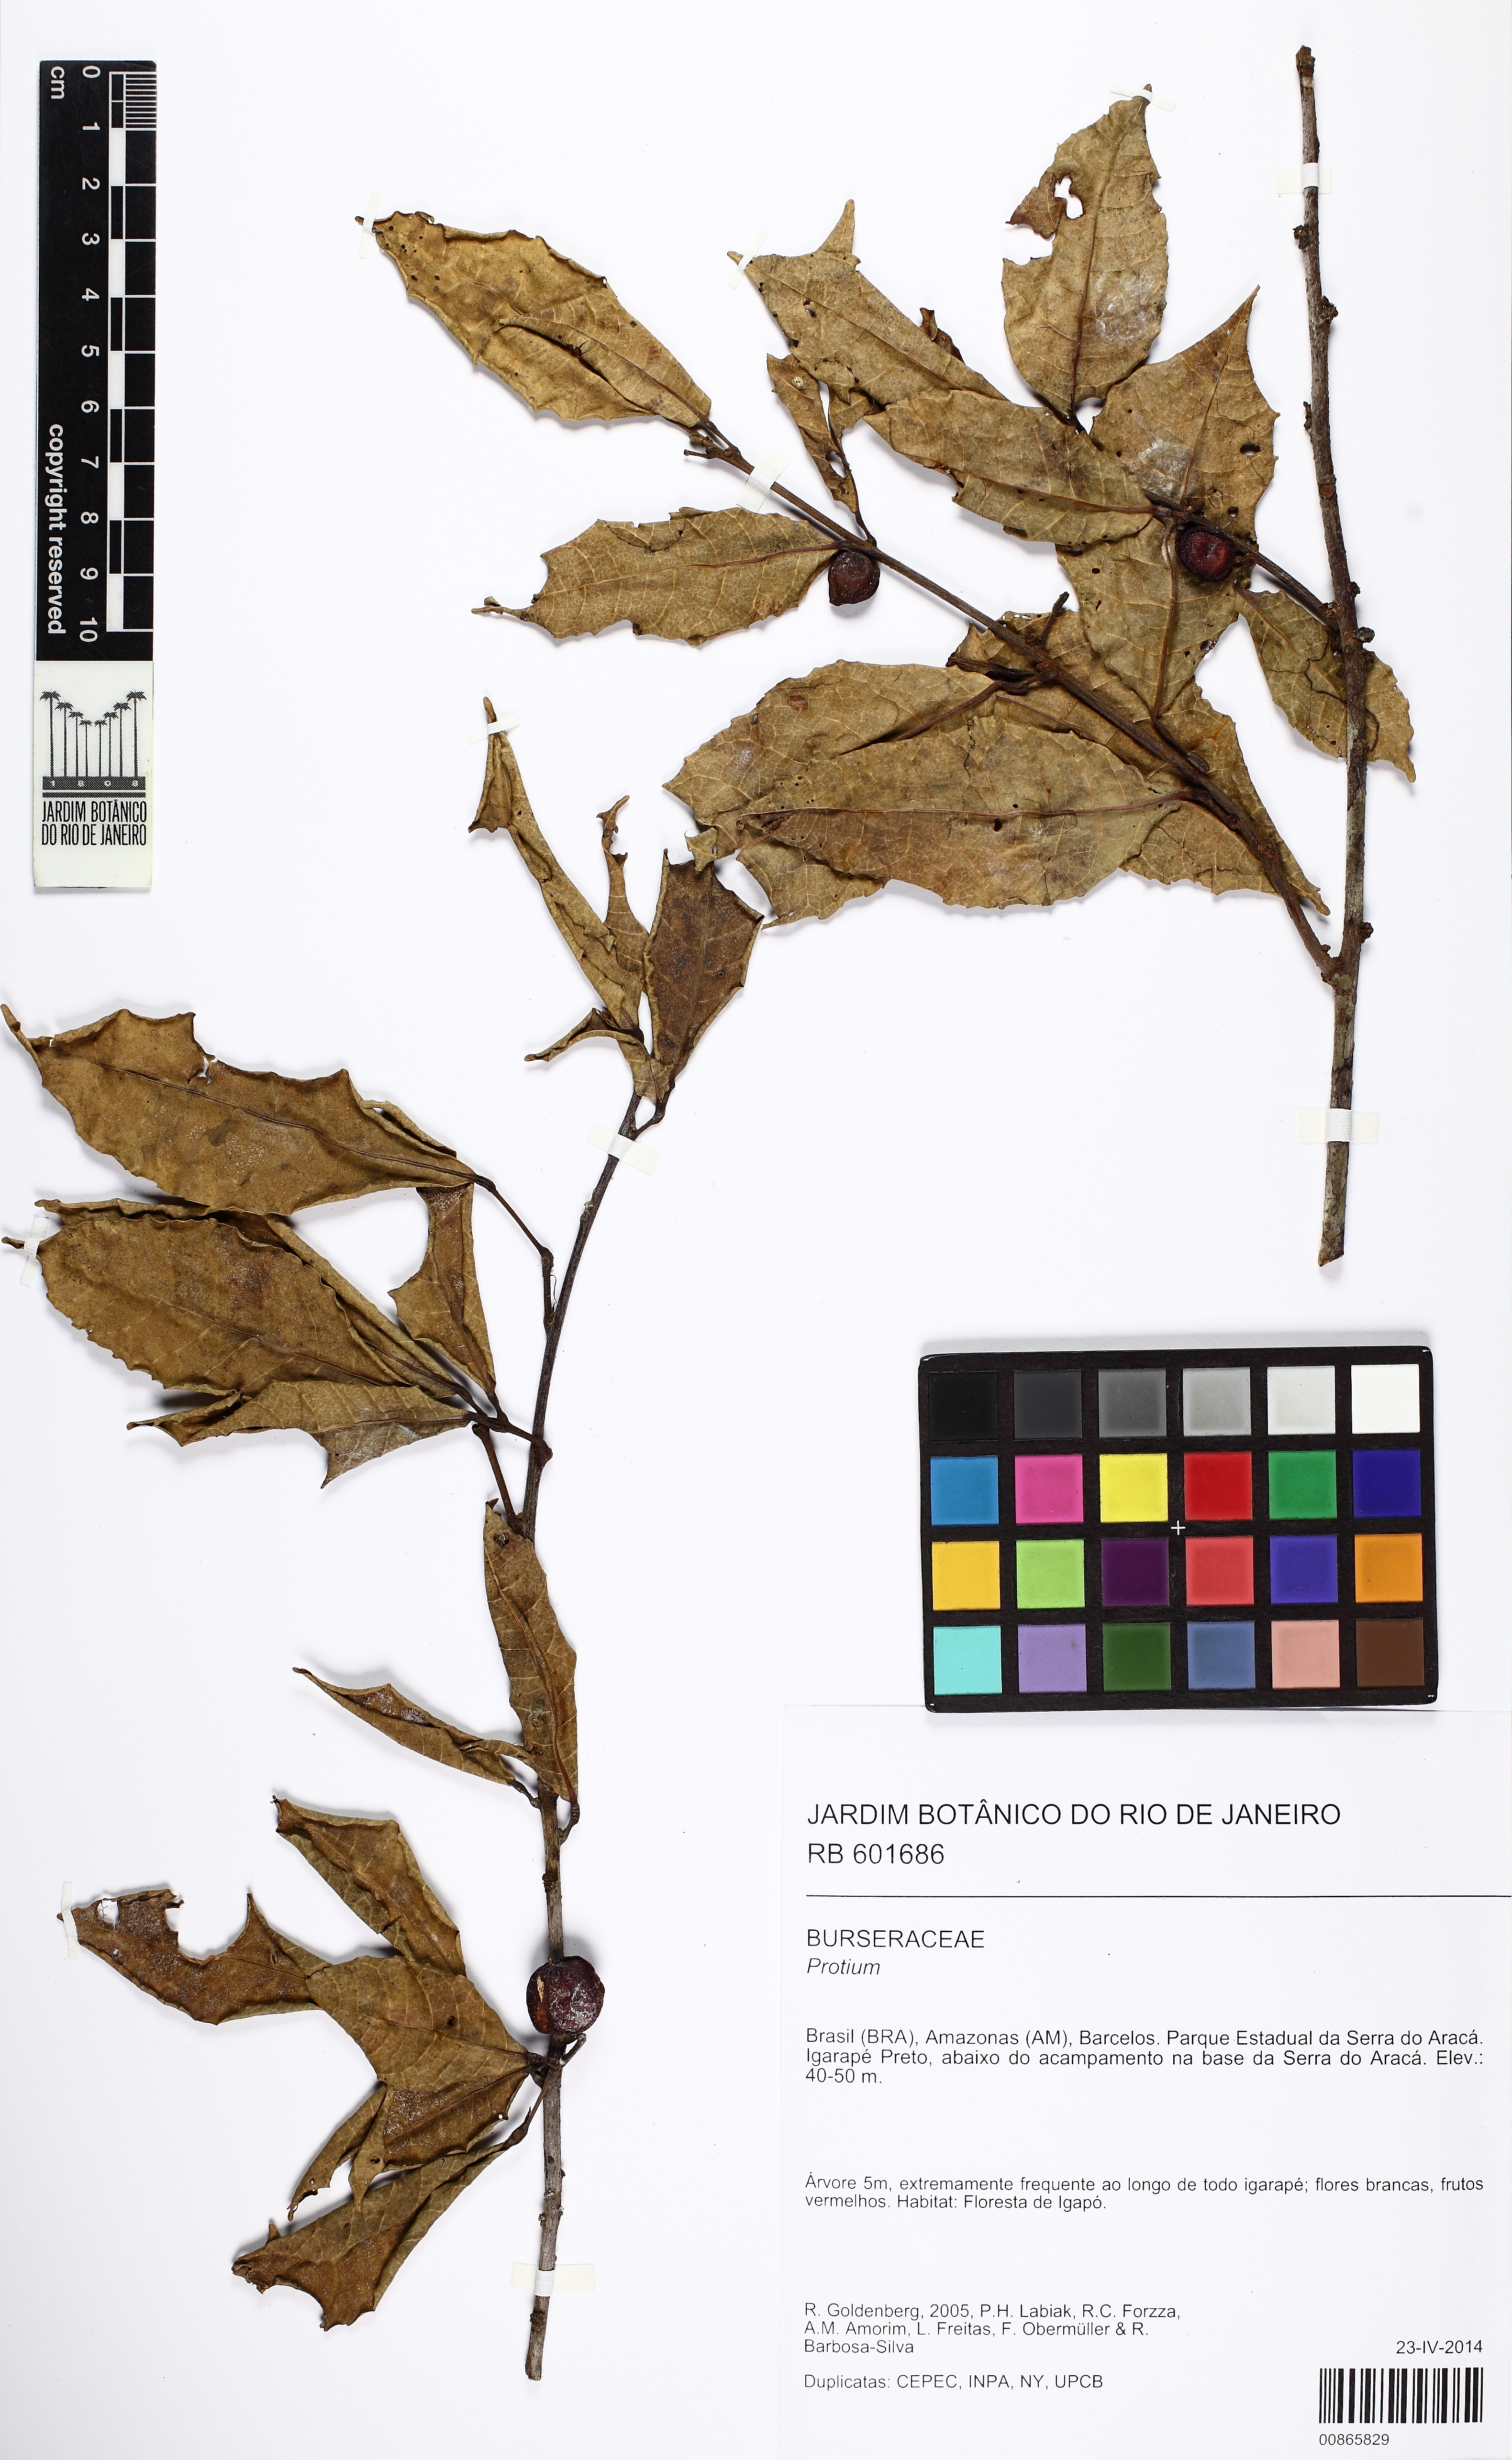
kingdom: Plantae
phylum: Tracheophyta
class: Magnoliopsida
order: Sapindales
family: Burseraceae
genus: Protium
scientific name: Protium unifoliolatum
